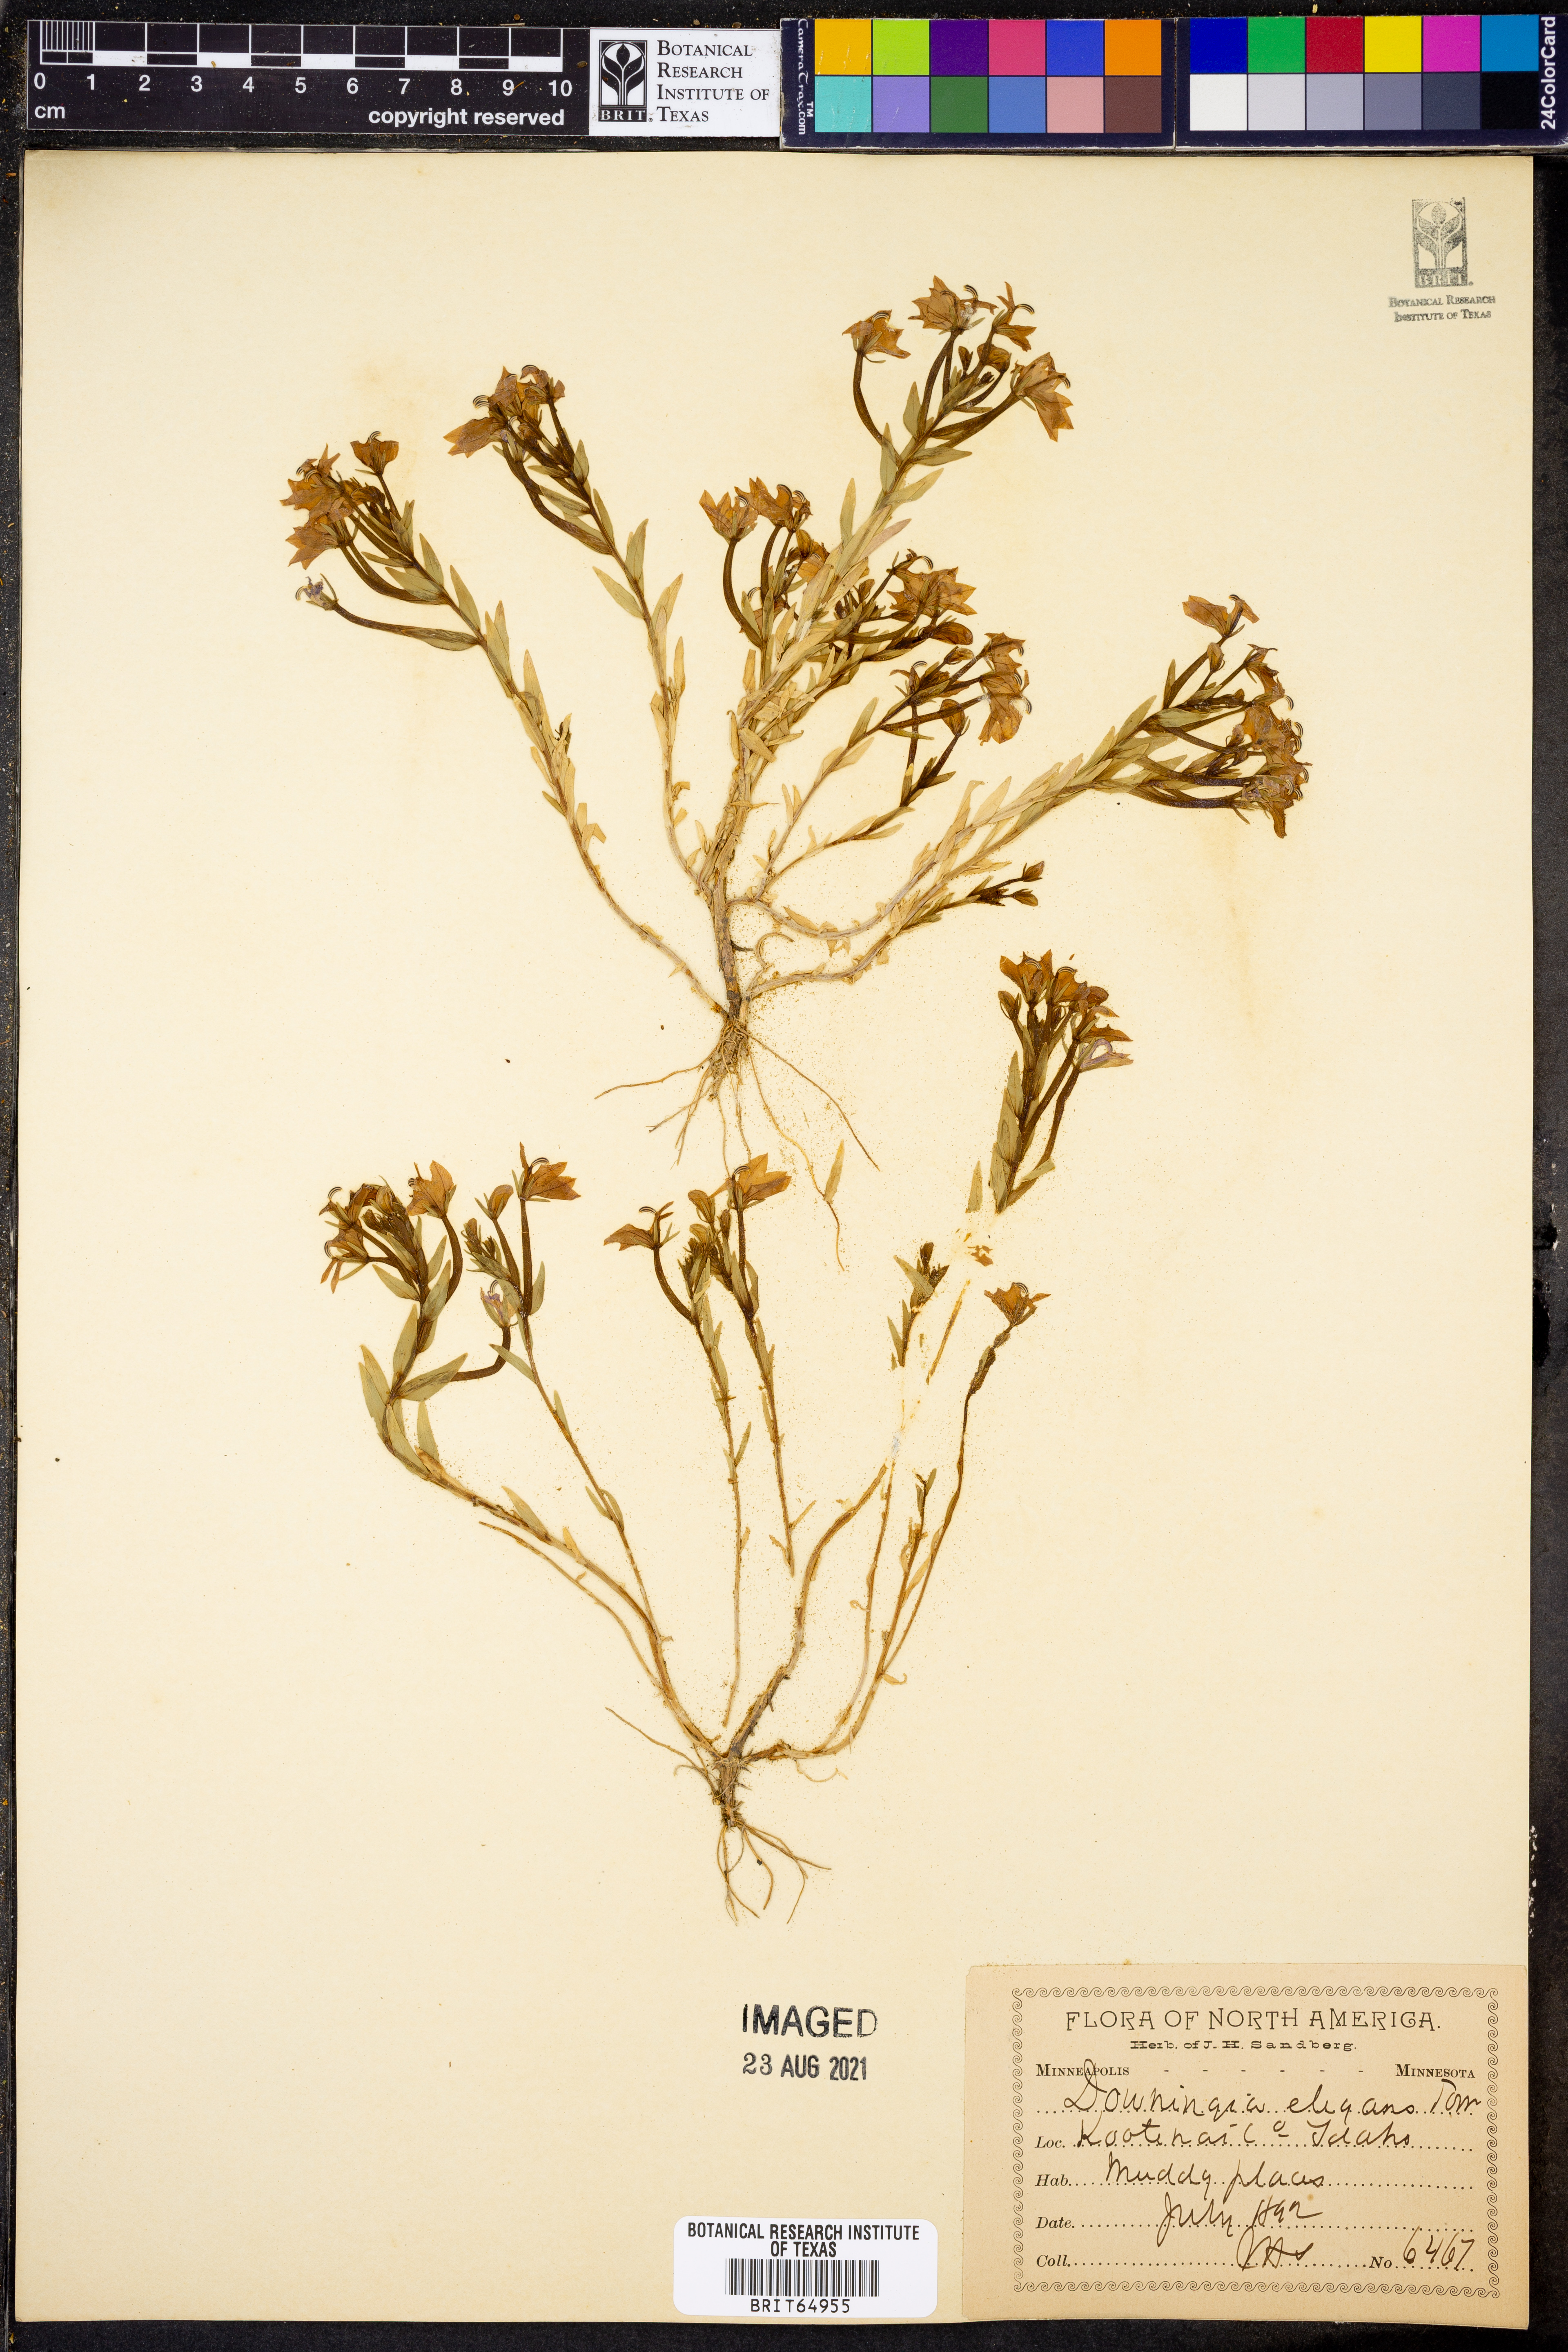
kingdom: Plantae
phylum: Tracheophyta
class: Magnoliopsida
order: Asterales
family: Campanulaceae
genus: Downingia
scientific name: Downingia elegans
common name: Californian lobelia
